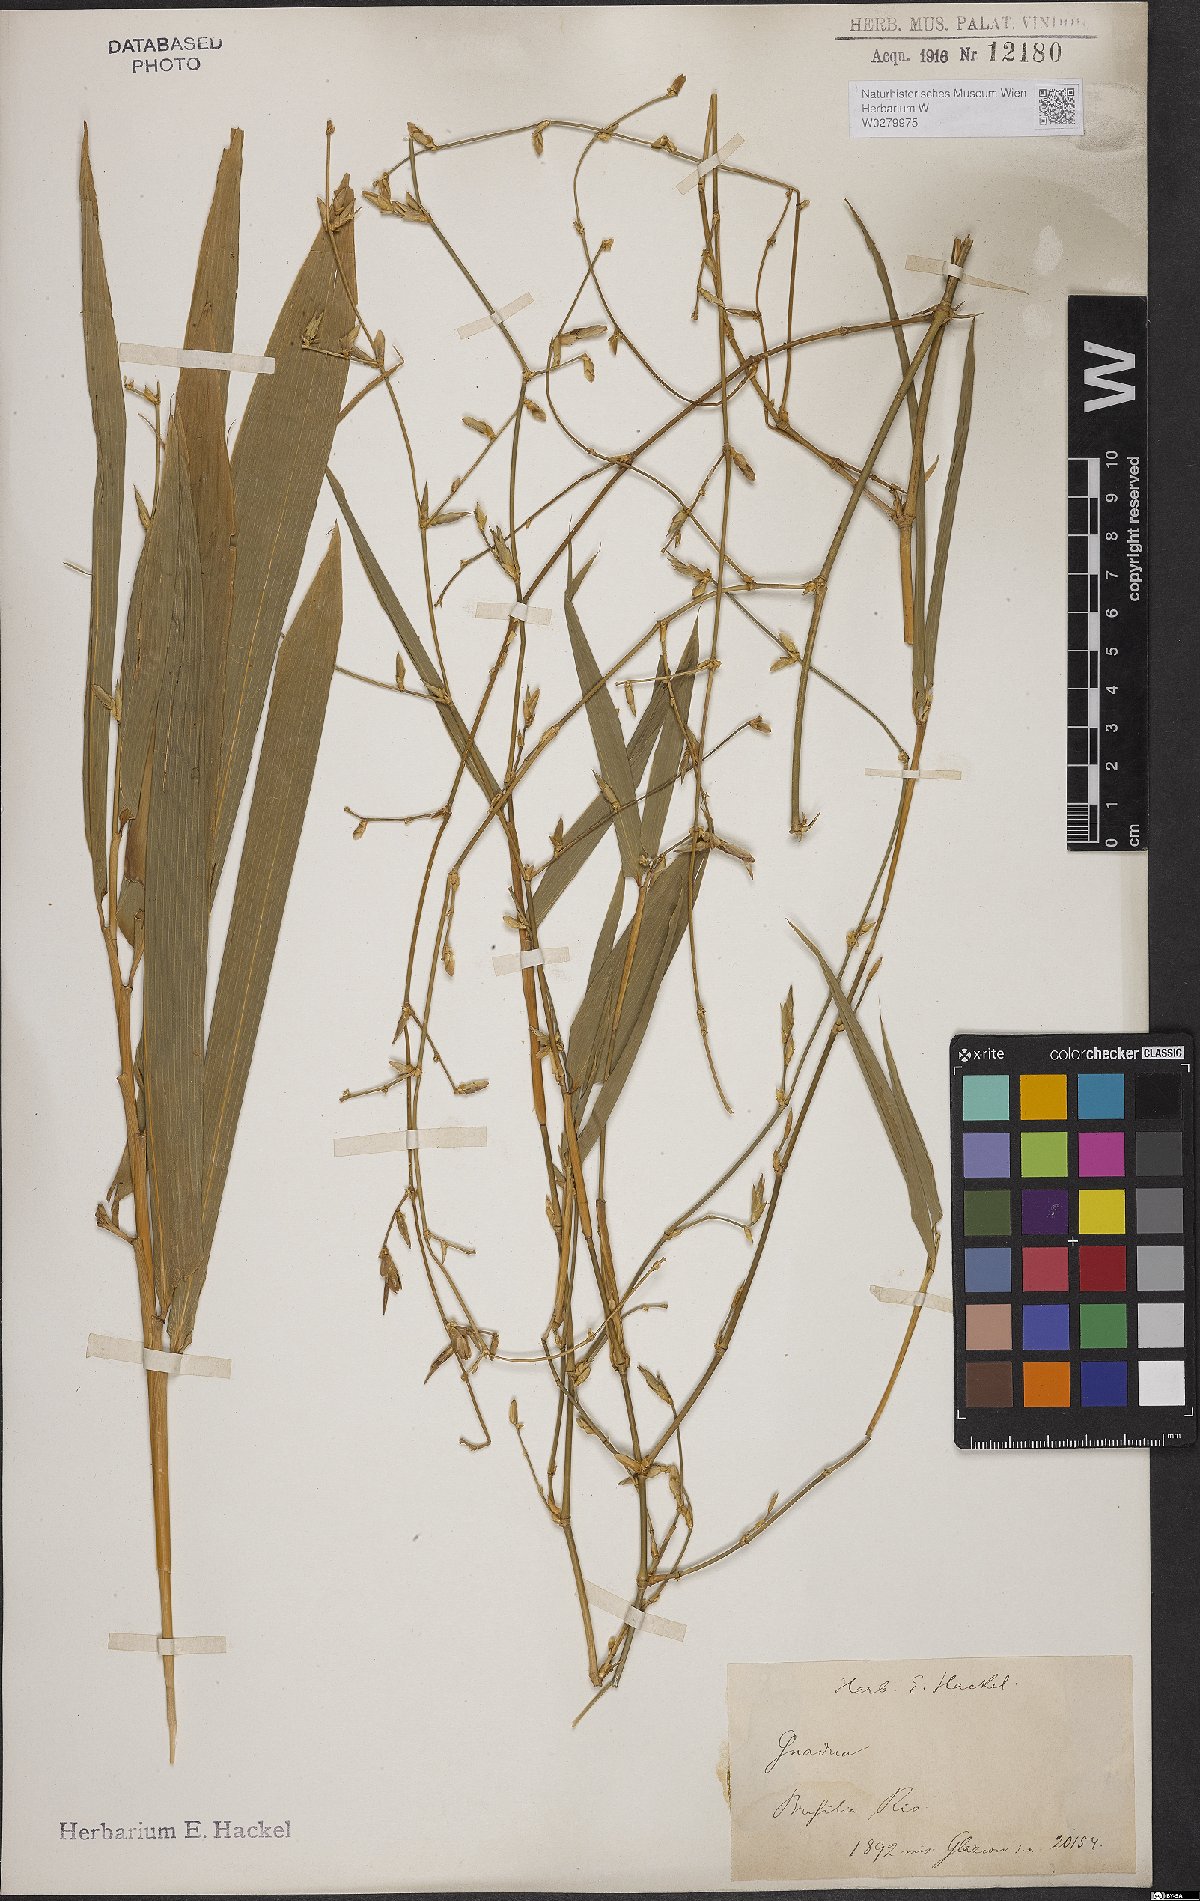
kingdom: Plantae
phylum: Tracheophyta
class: Liliopsida
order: Poales
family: Poaceae
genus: Bambusa
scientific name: Bambusa
